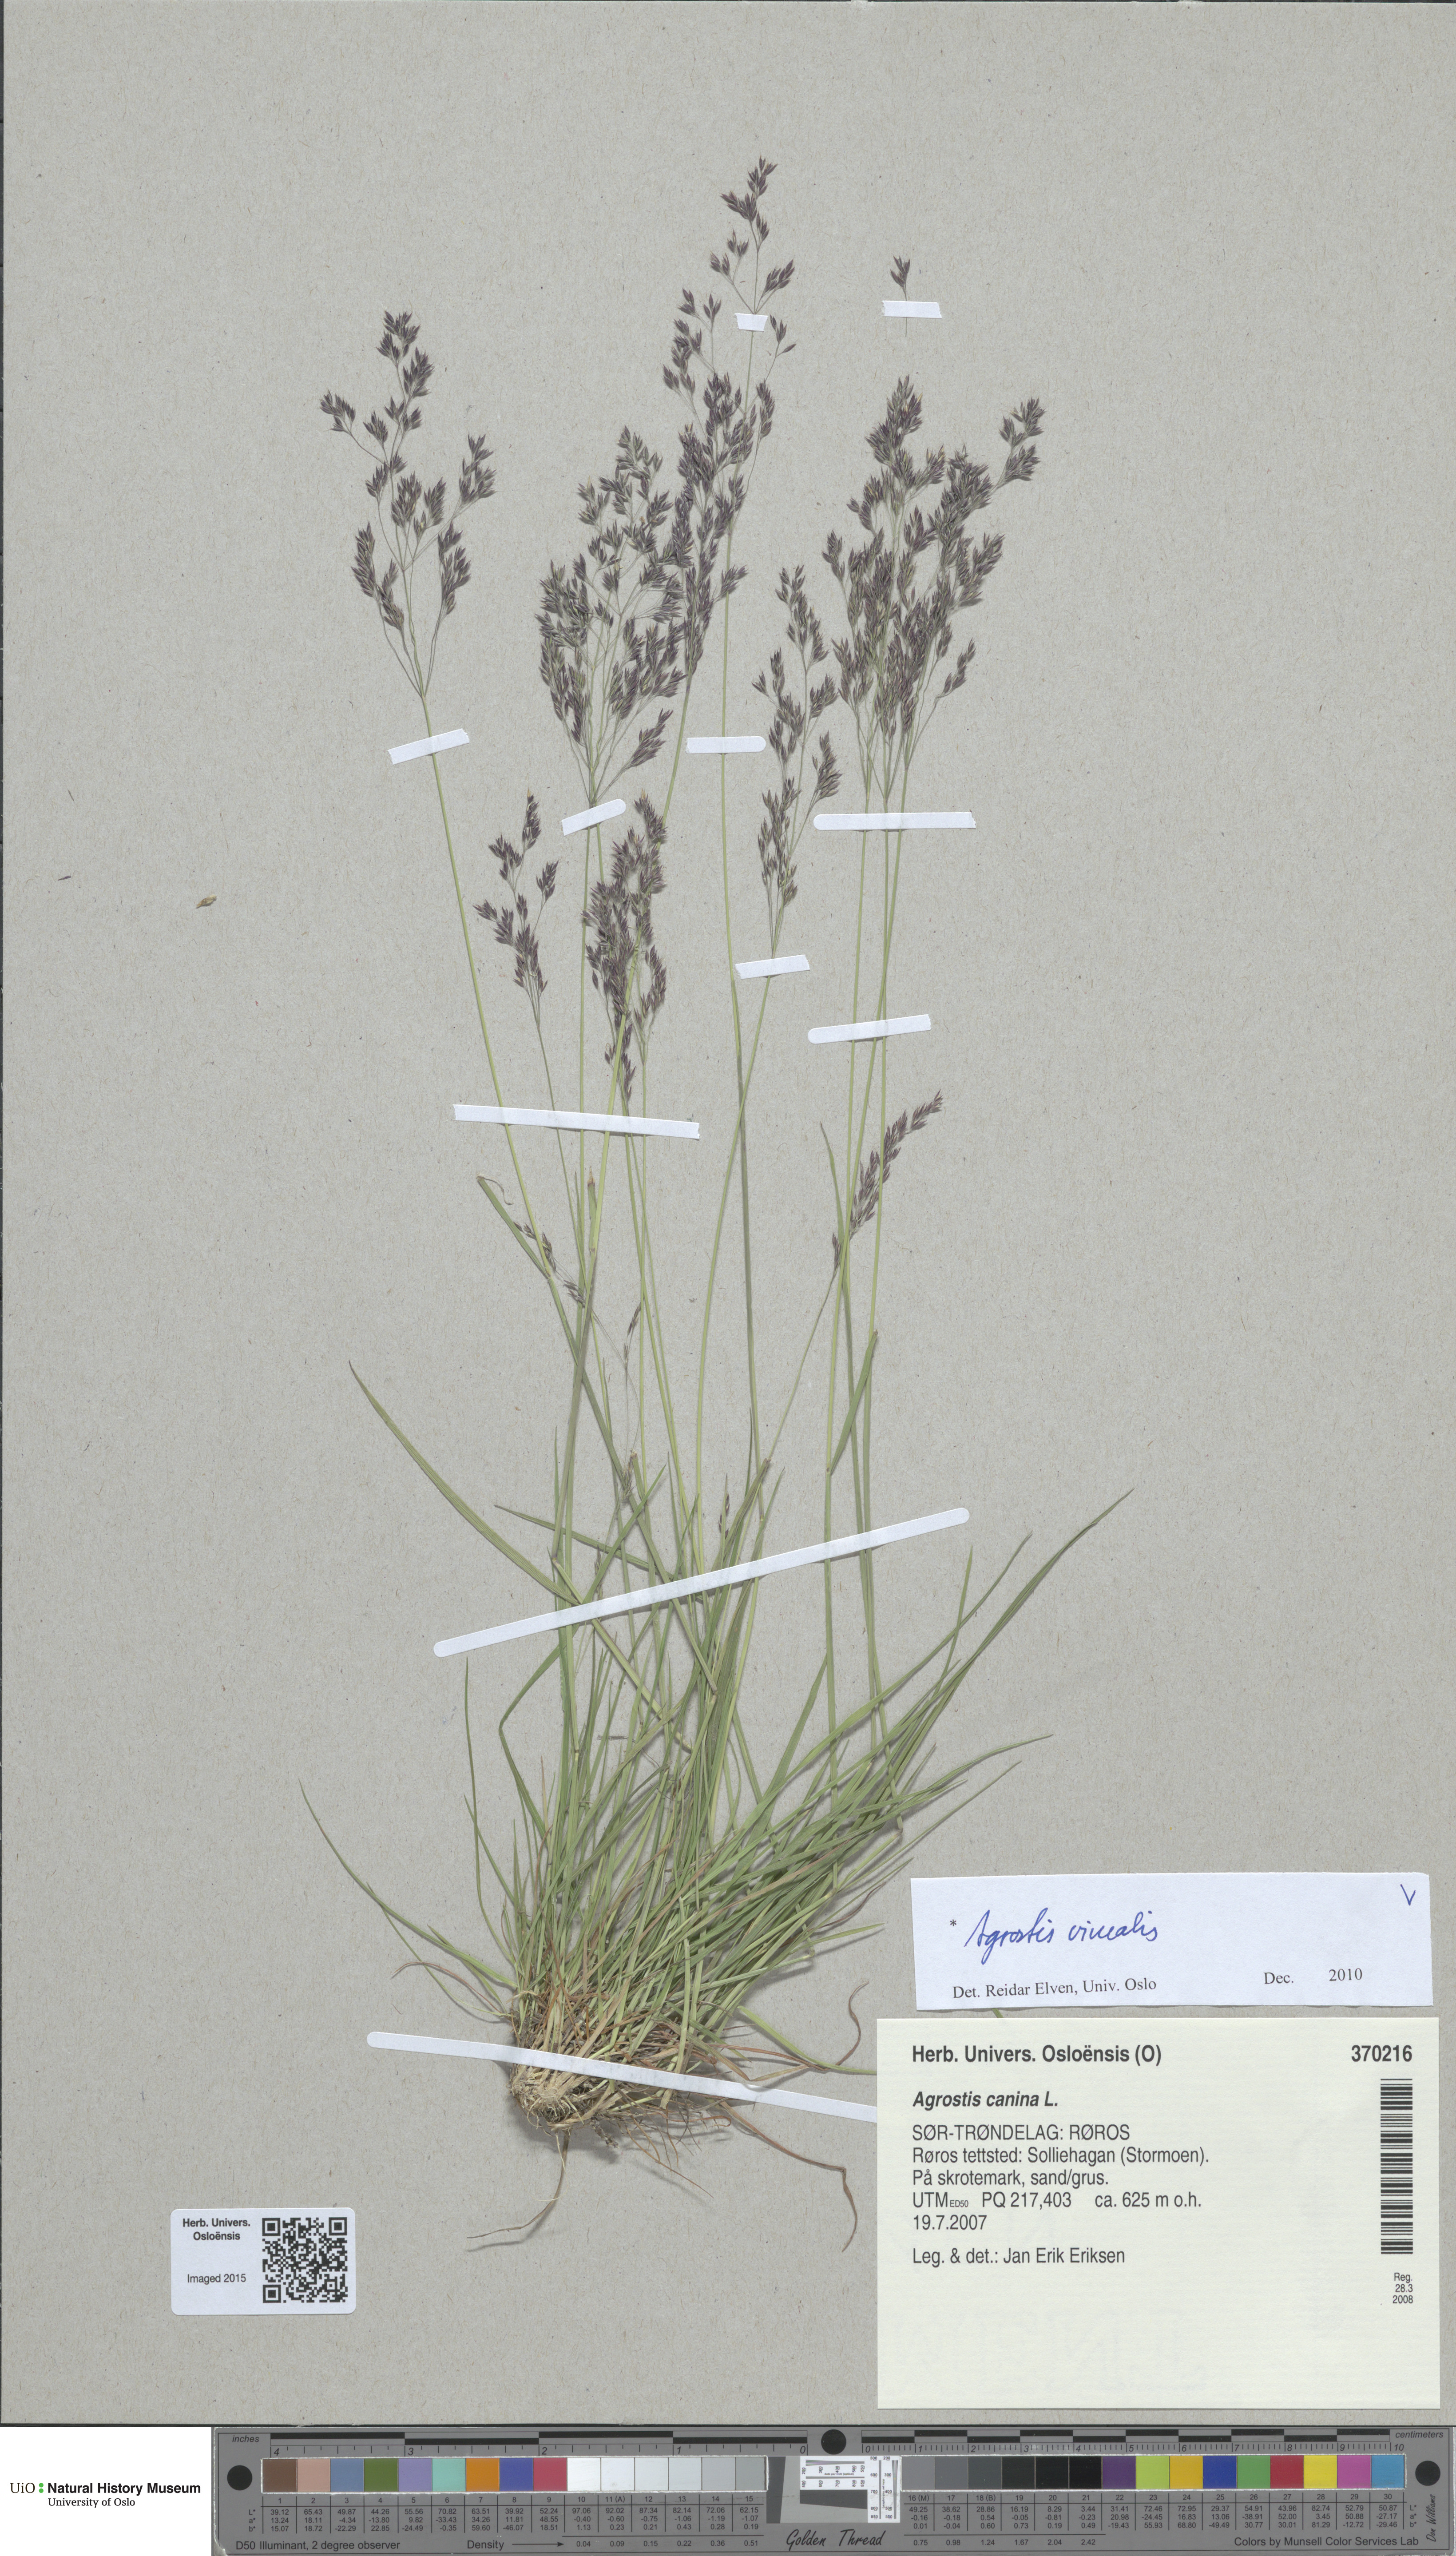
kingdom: Plantae
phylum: Tracheophyta
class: Liliopsida
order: Poales
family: Poaceae
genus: Agrostis
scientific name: Agrostis vinealis
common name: Brown bent
